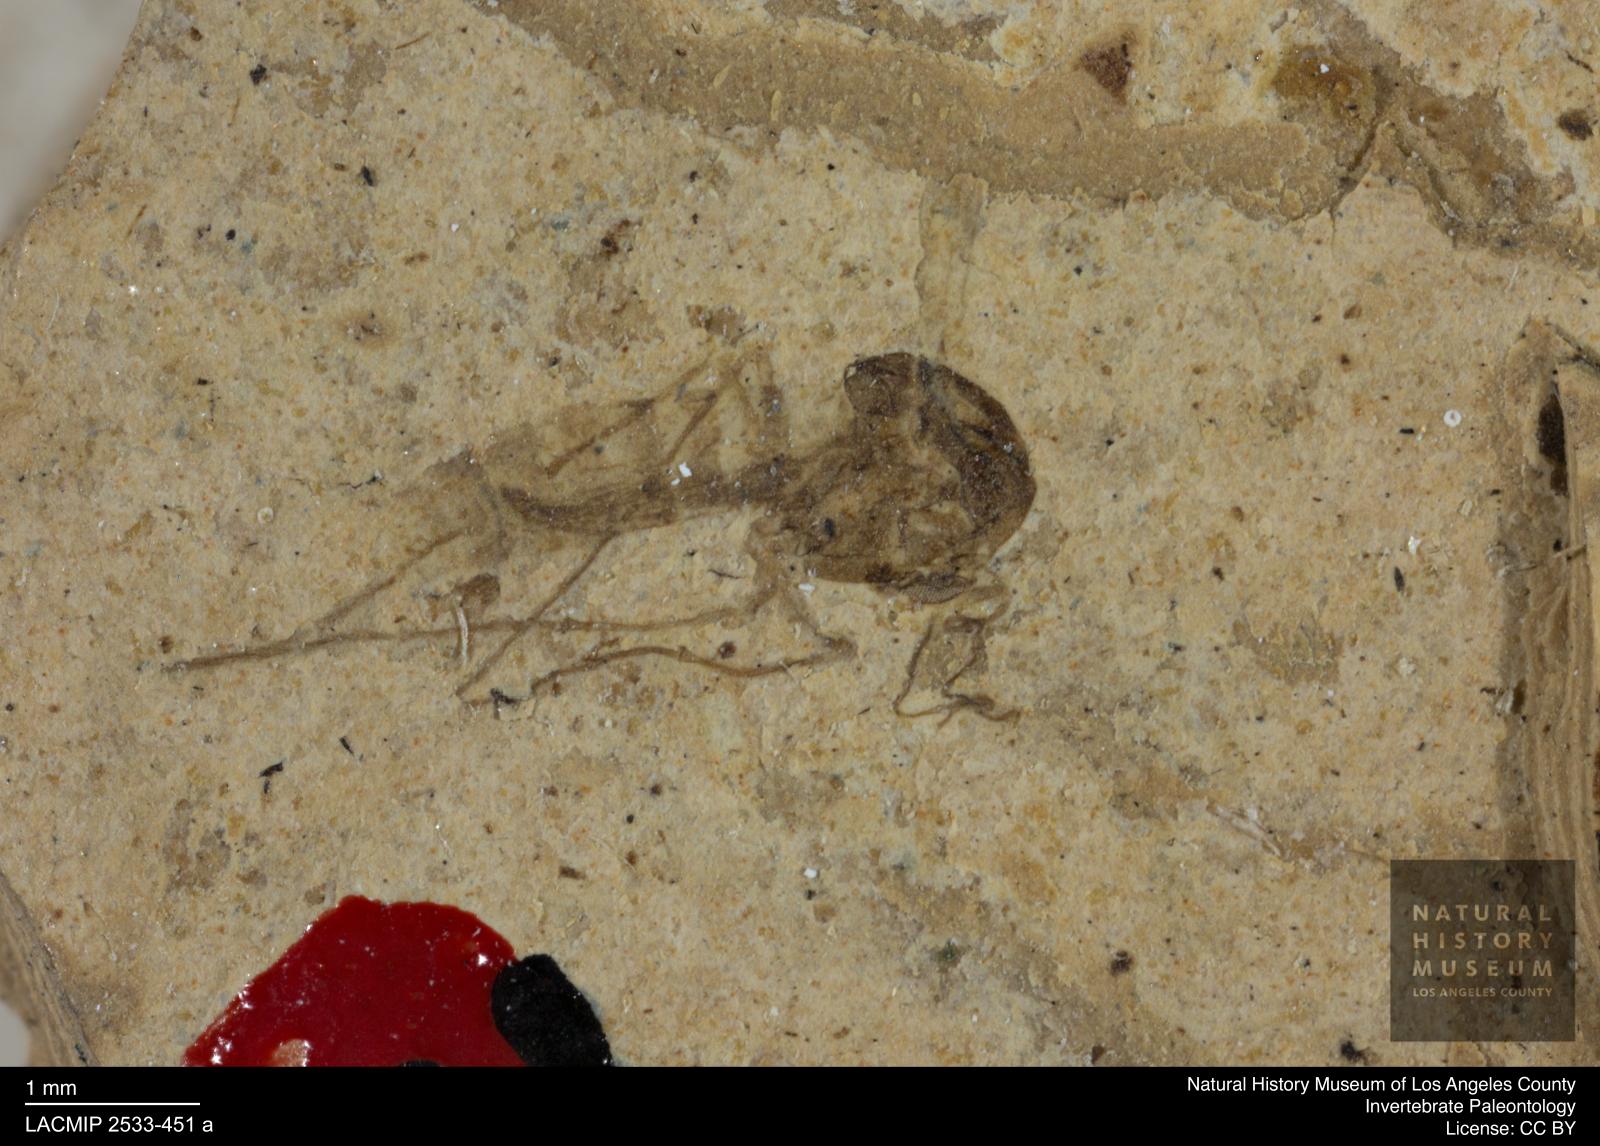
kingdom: Animalia
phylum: Arthropoda
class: Insecta
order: Diptera
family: Chironomidae
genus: Tanypus
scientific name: Tanypus thienemanni
